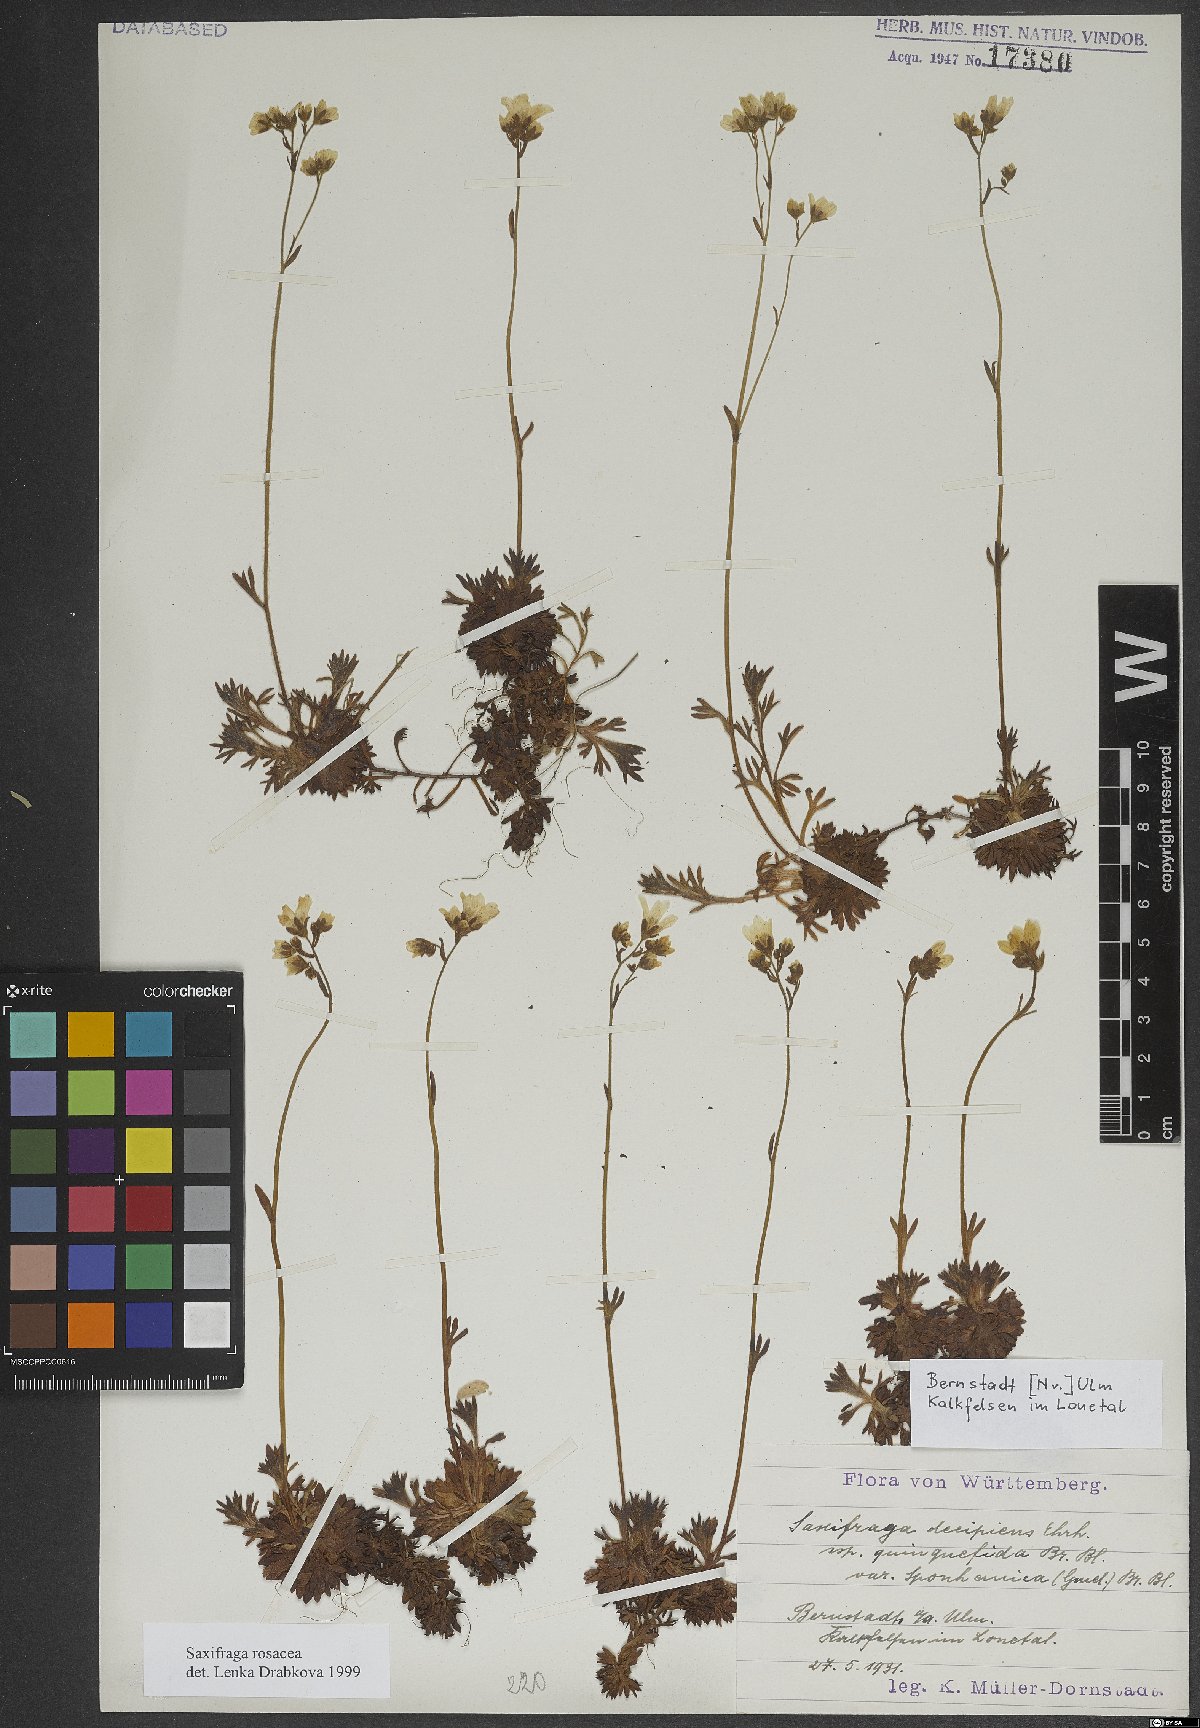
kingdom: Plantae
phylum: Tracheophyta
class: Magnoliopsida
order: Saxifragales
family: Saxifragaceae
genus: Saxifraga
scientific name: Saxifraga rosacea
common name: Irish saxifrage
